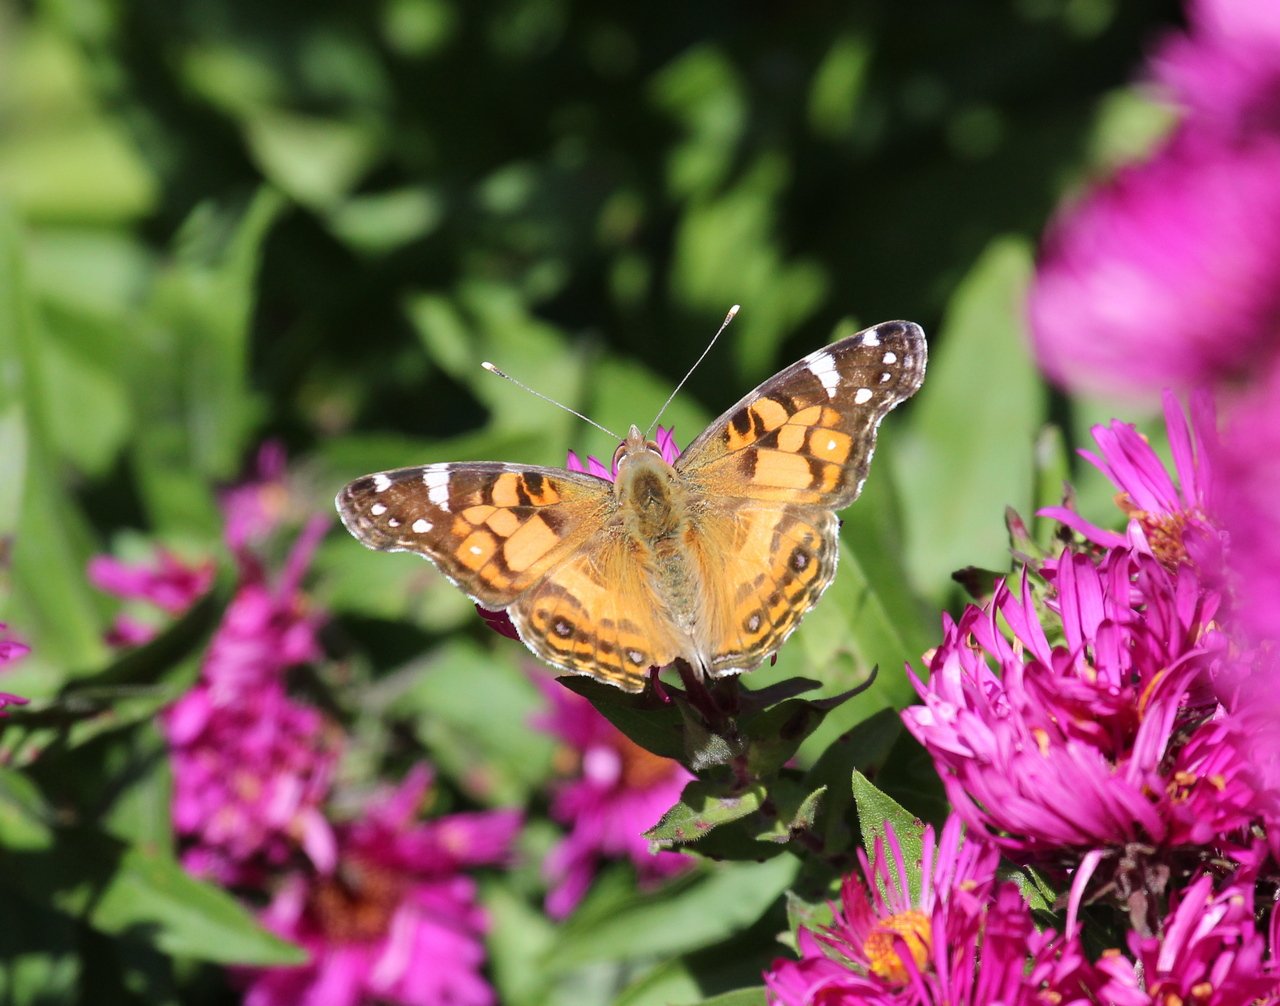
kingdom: Animalia
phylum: Arthropoda
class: Insecta
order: Lepidoptera
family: Nymphalidae
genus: Vanessa
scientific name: Vanessa virginiensis
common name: American Lady
